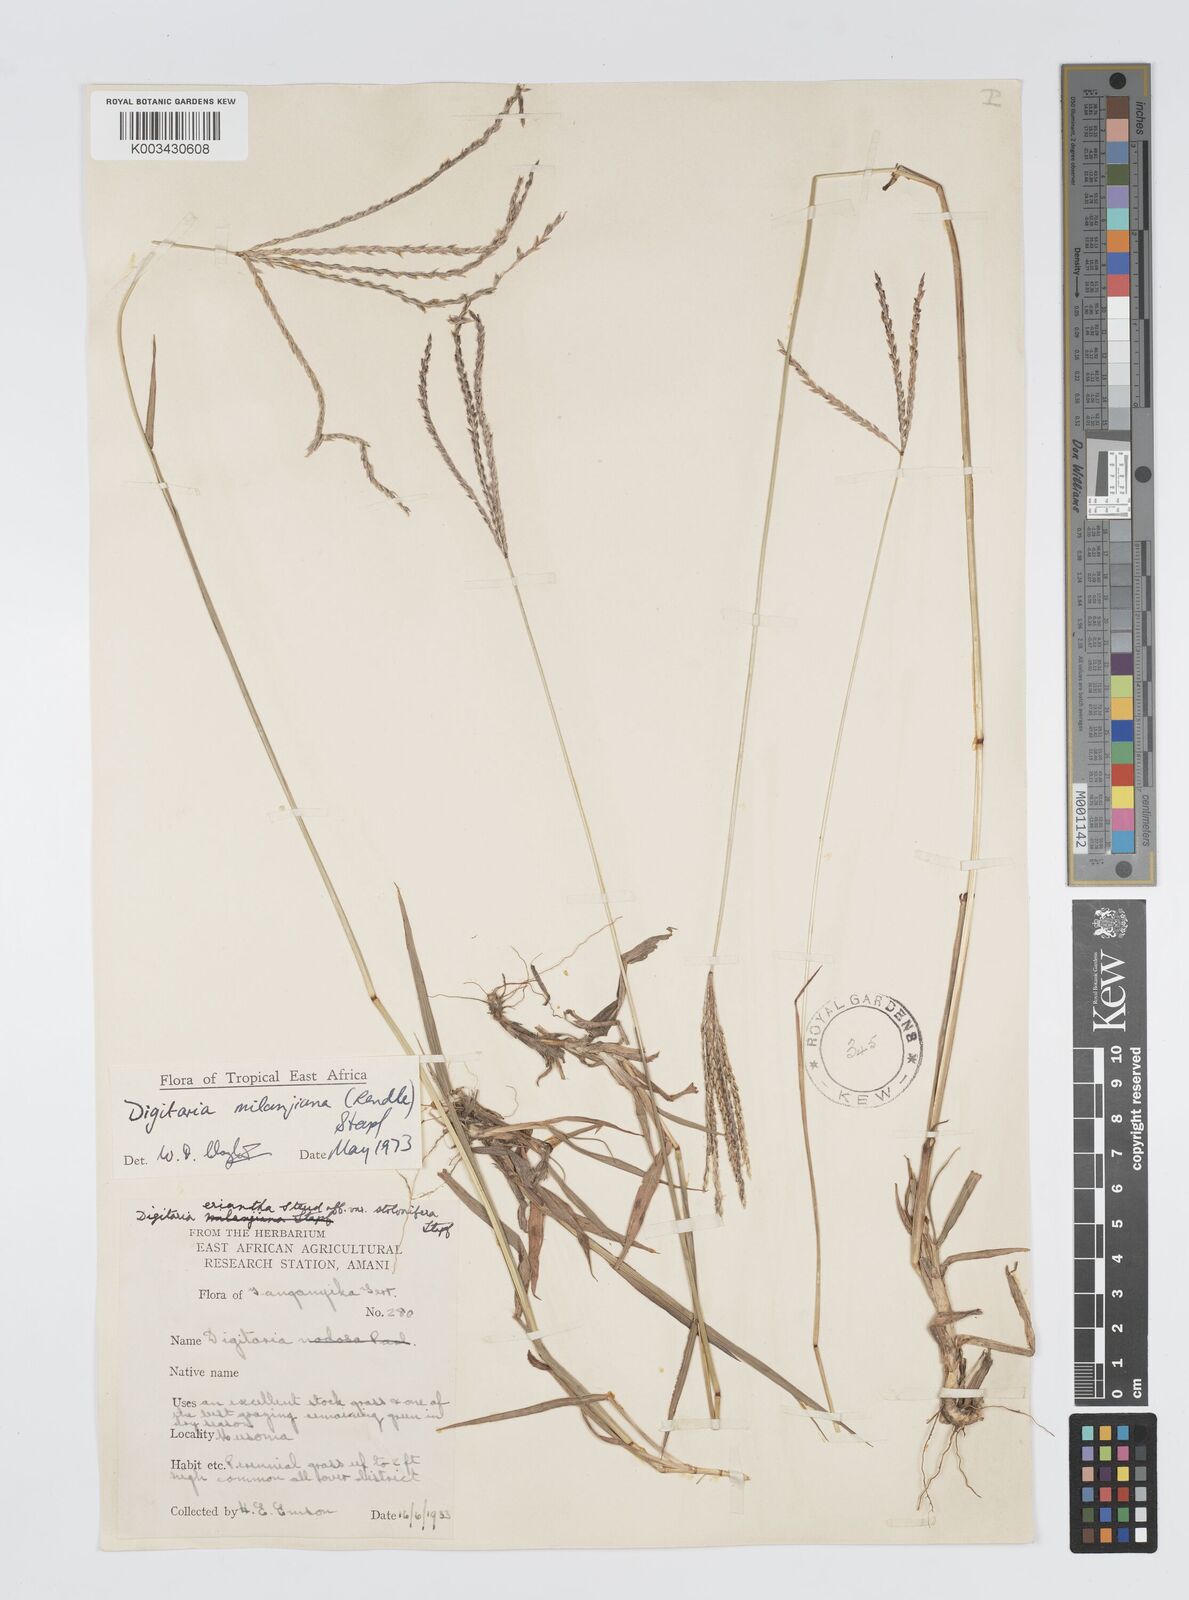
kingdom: Plantae
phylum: Tracheophyta
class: Liliopsida
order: Poales
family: Poaceae
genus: Digitaria
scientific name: Digitaria milanjiana
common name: Madagascar crabgrass
